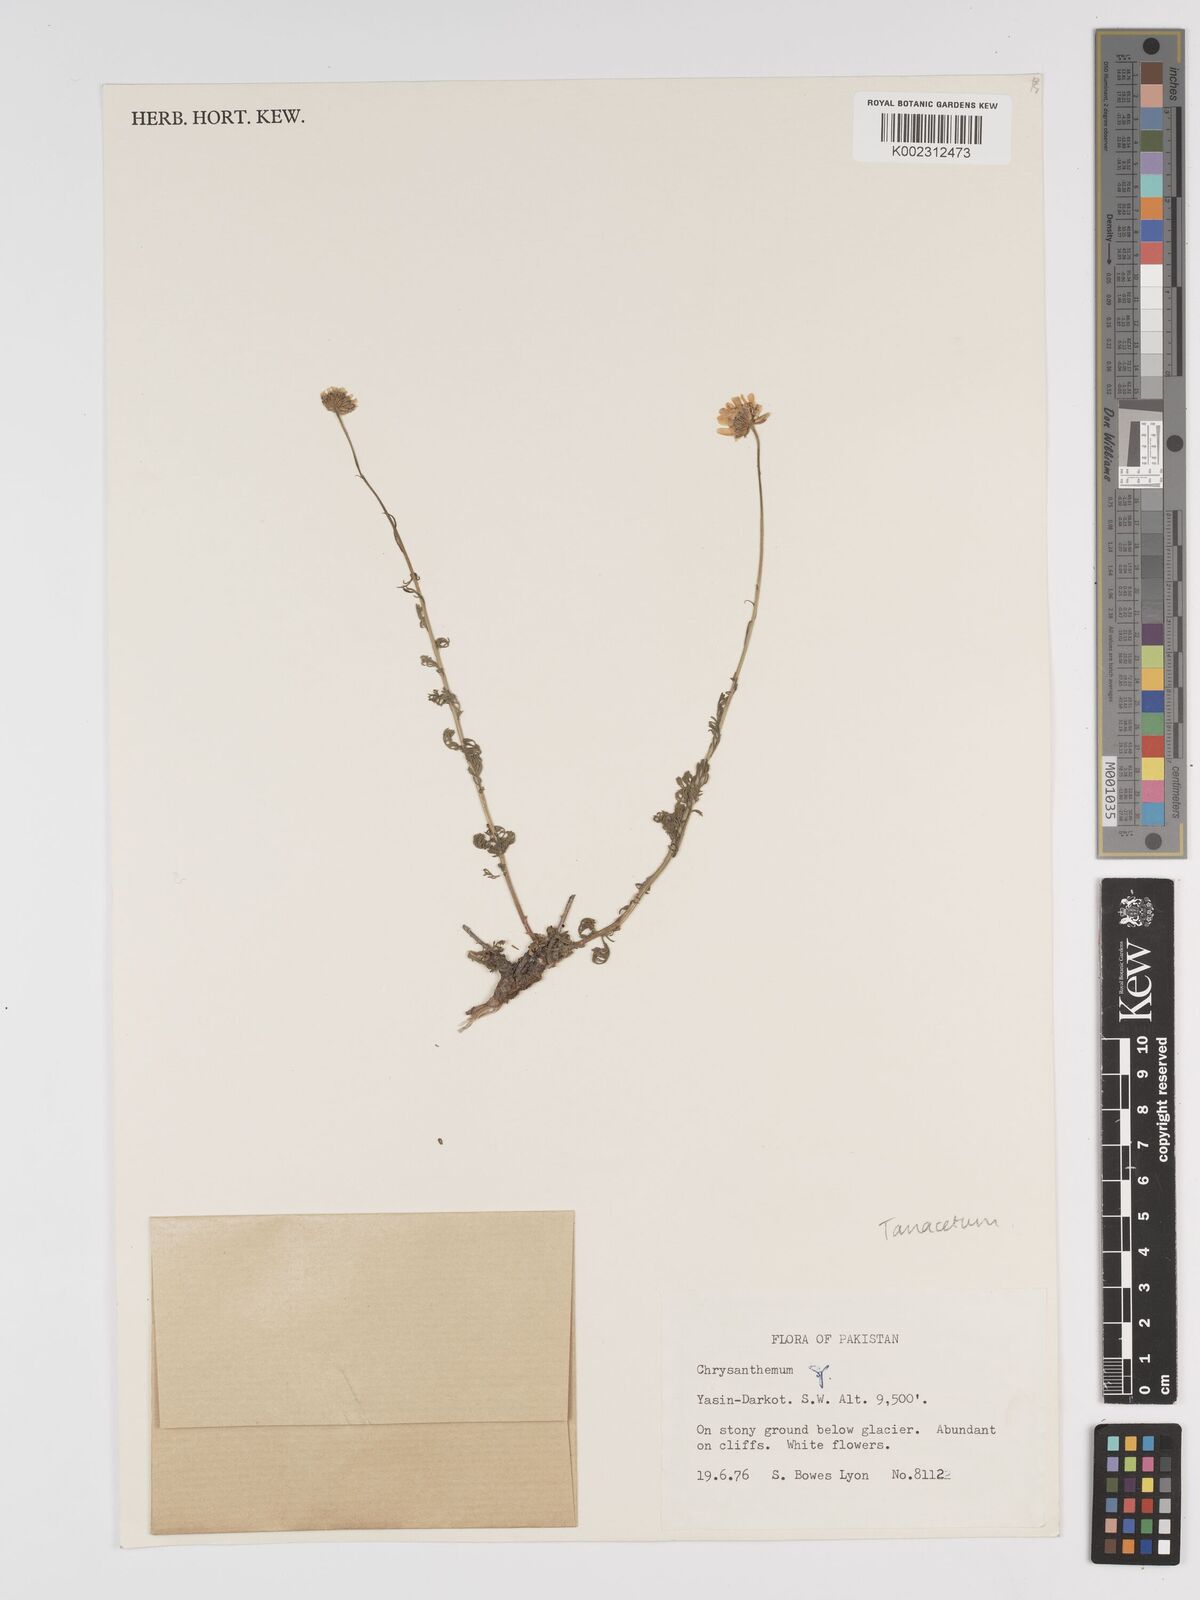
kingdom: Plantae
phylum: Tracheophyta
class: Magnoliopsida
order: Asterales
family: Asteraceae
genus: Tanacetum
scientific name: Tanacetum
